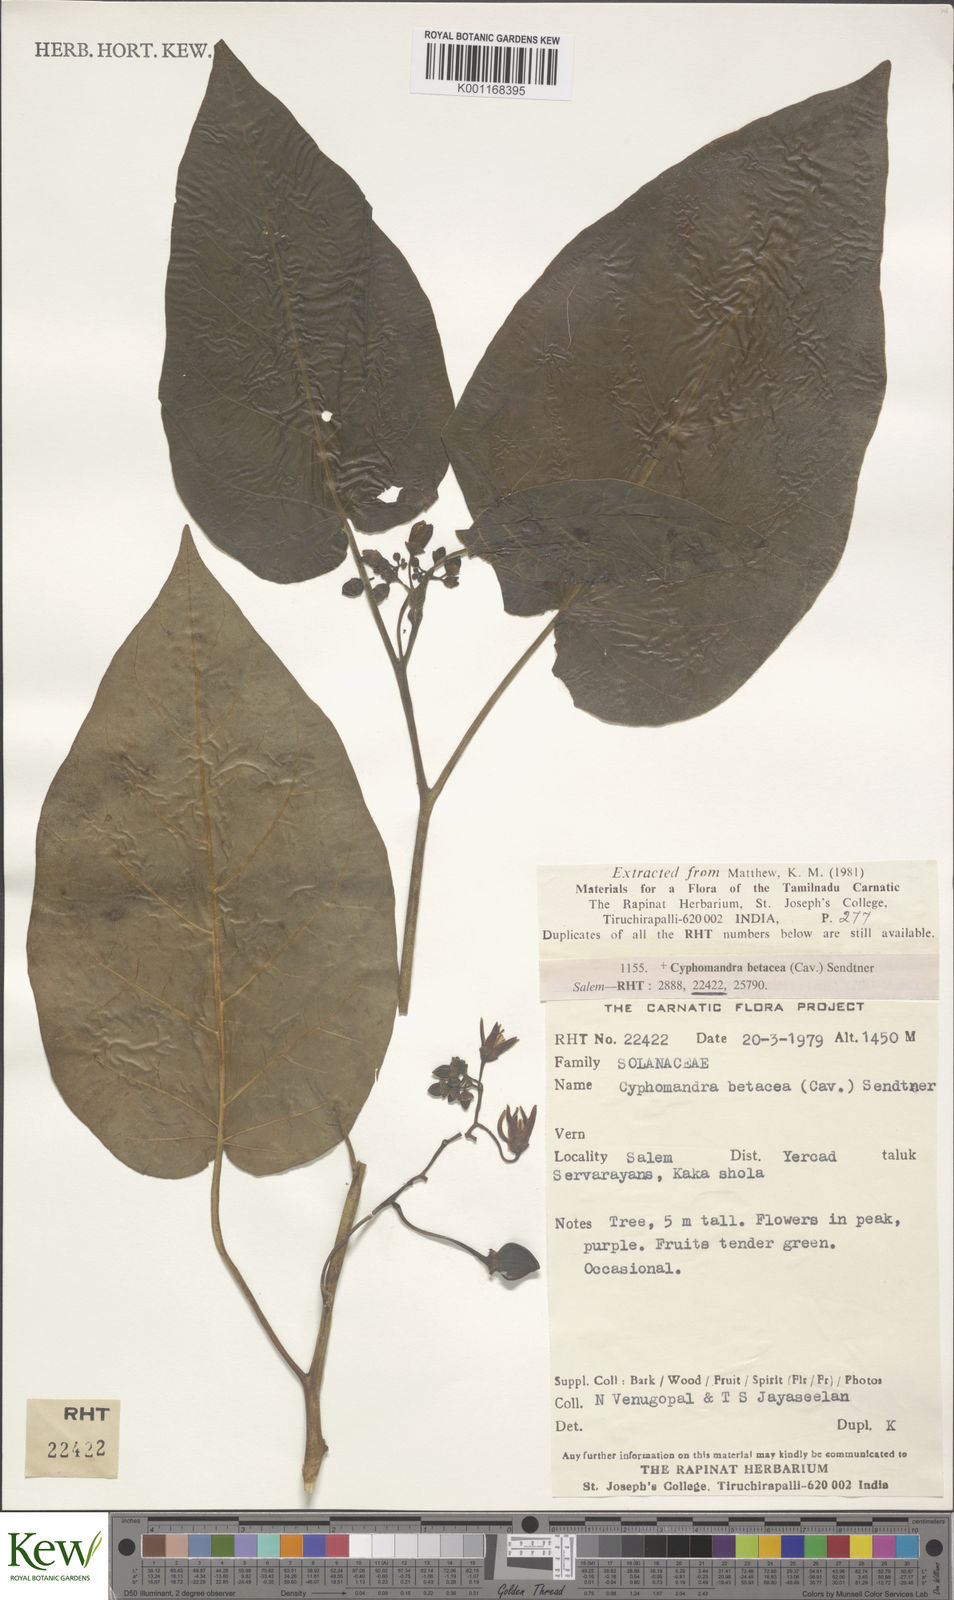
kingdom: Plantae
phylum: Tracheophyta
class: Magnoliopsida
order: Solanales
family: Solanaceae
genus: Solanum
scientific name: Solanum betaceum
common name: Tamarillo
